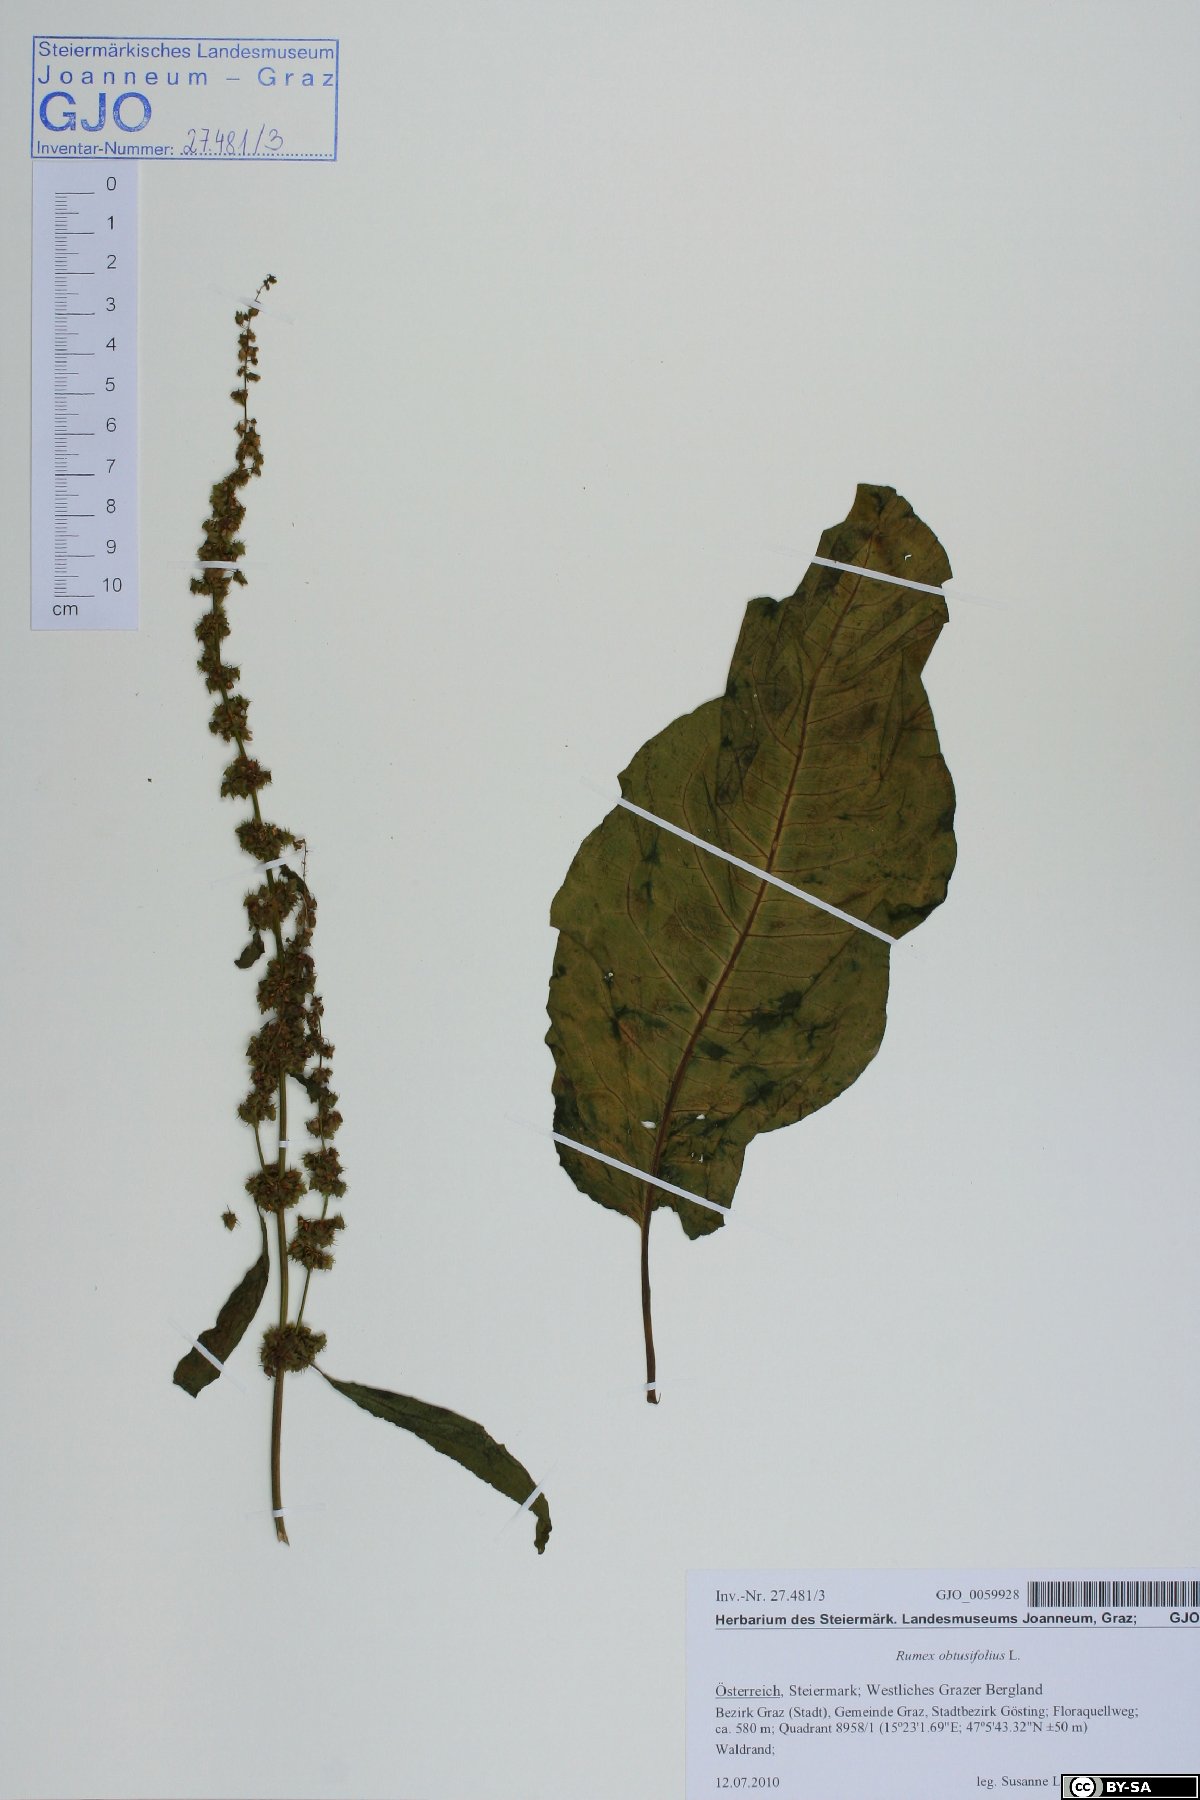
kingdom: Plantae
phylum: Tracheophyta
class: Magnoliopsida
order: Caryophyllales
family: Polygonaceae
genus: Rumex
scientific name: Rumex obtusifolius
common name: Bitter dock
